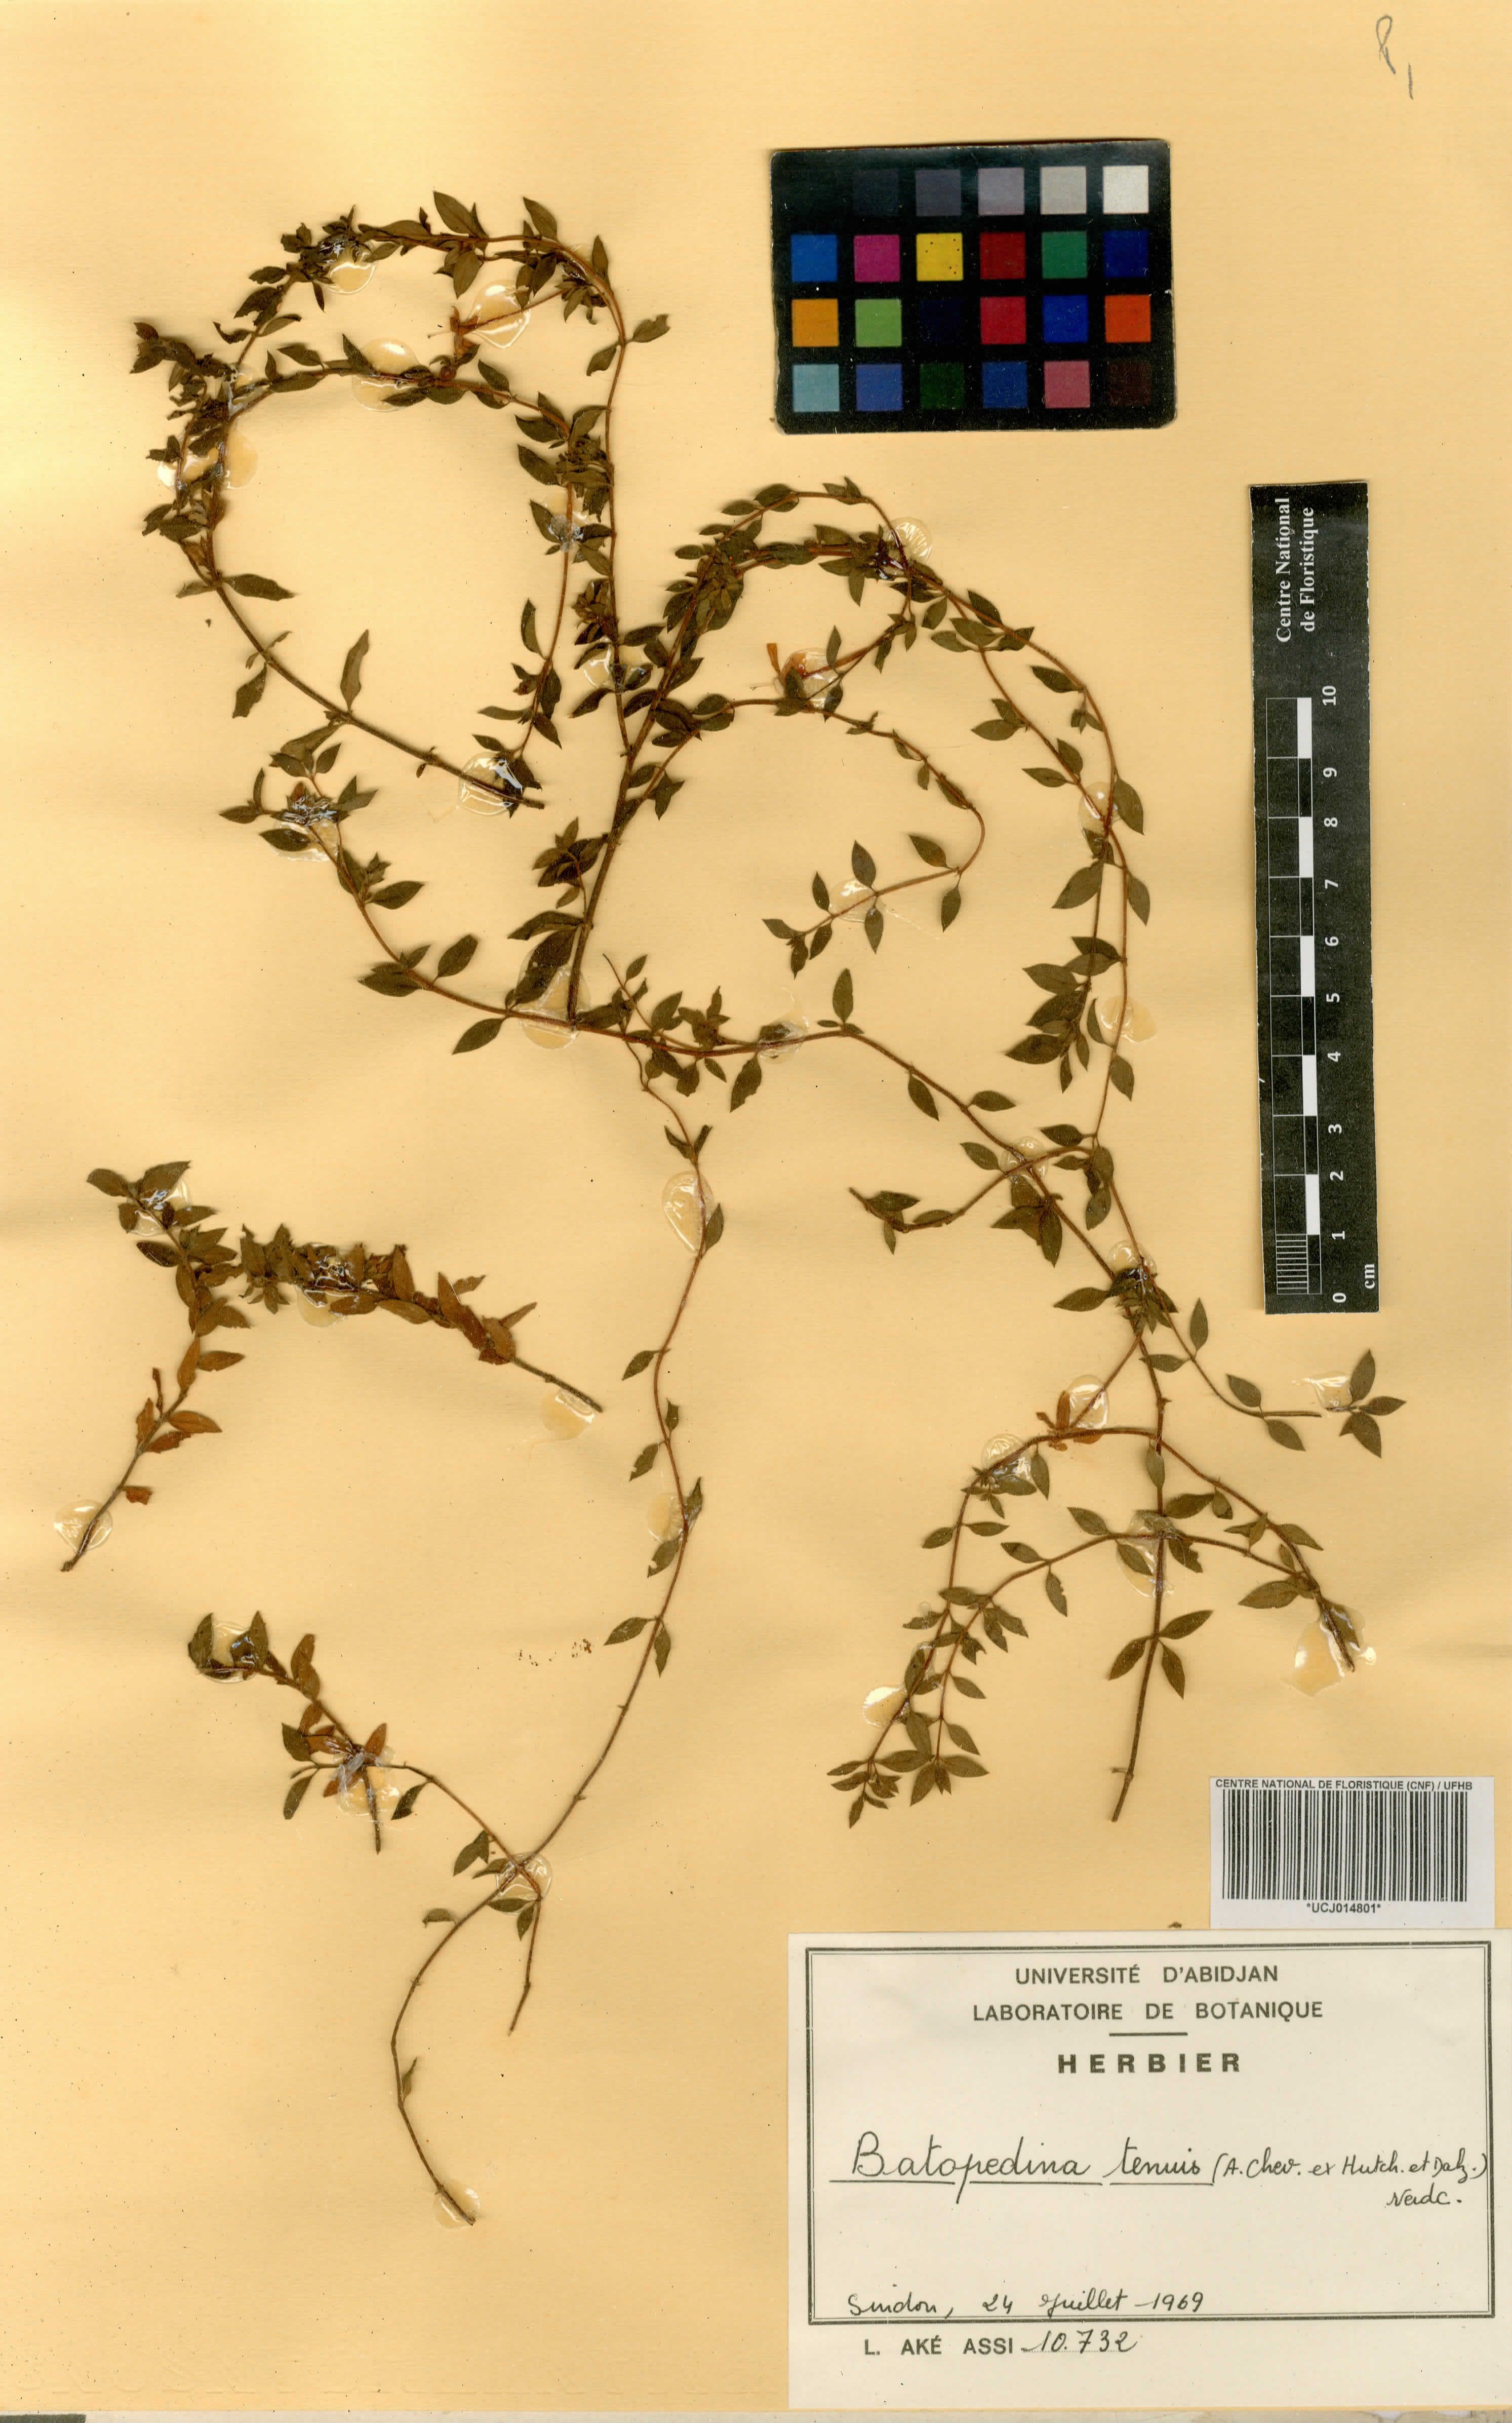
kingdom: Plantae
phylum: Tracheophyta
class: Magnoliopsida
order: Gentianales
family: Rubiaceae
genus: Batopedina
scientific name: Batopedina tenuis
